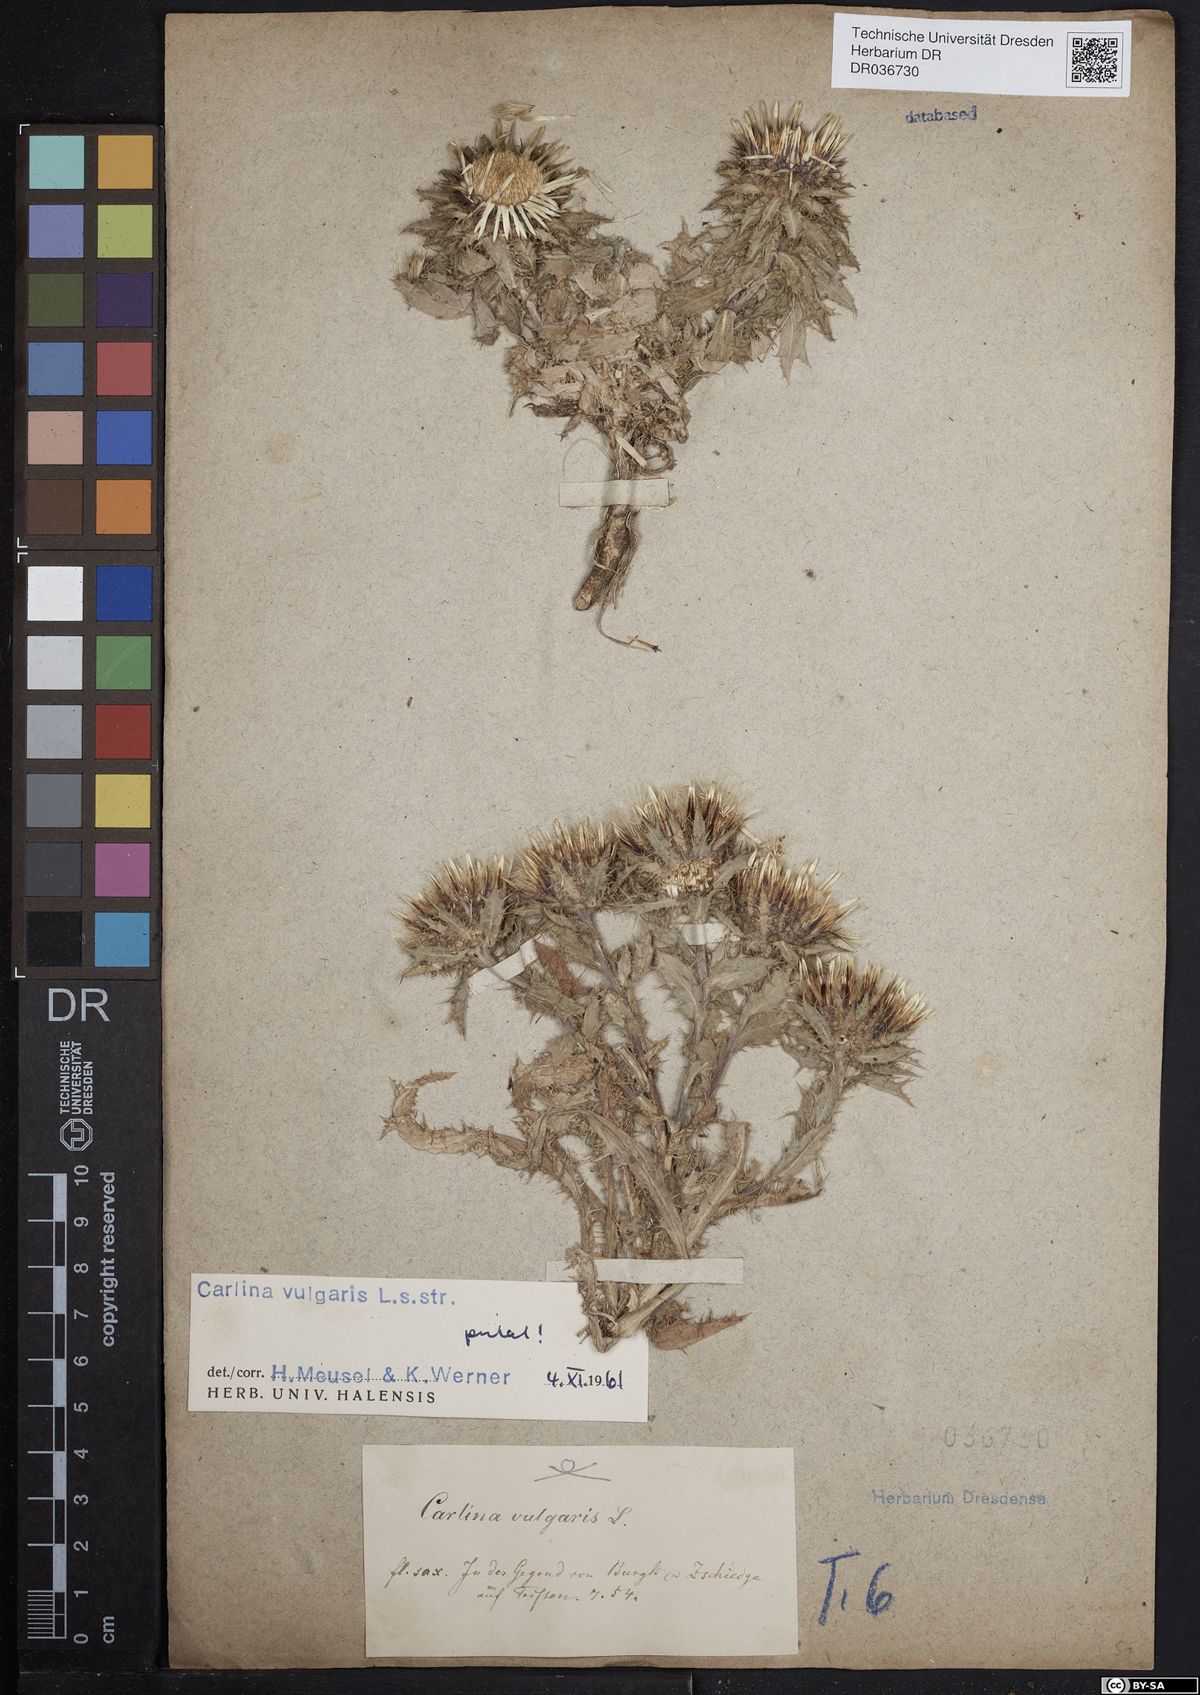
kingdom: Plantae
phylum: Tracheophyta
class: Magnoliopsida
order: Asterales
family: Asteraceae
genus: Carlina
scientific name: Carlina vulgaris
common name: Carline thistle
